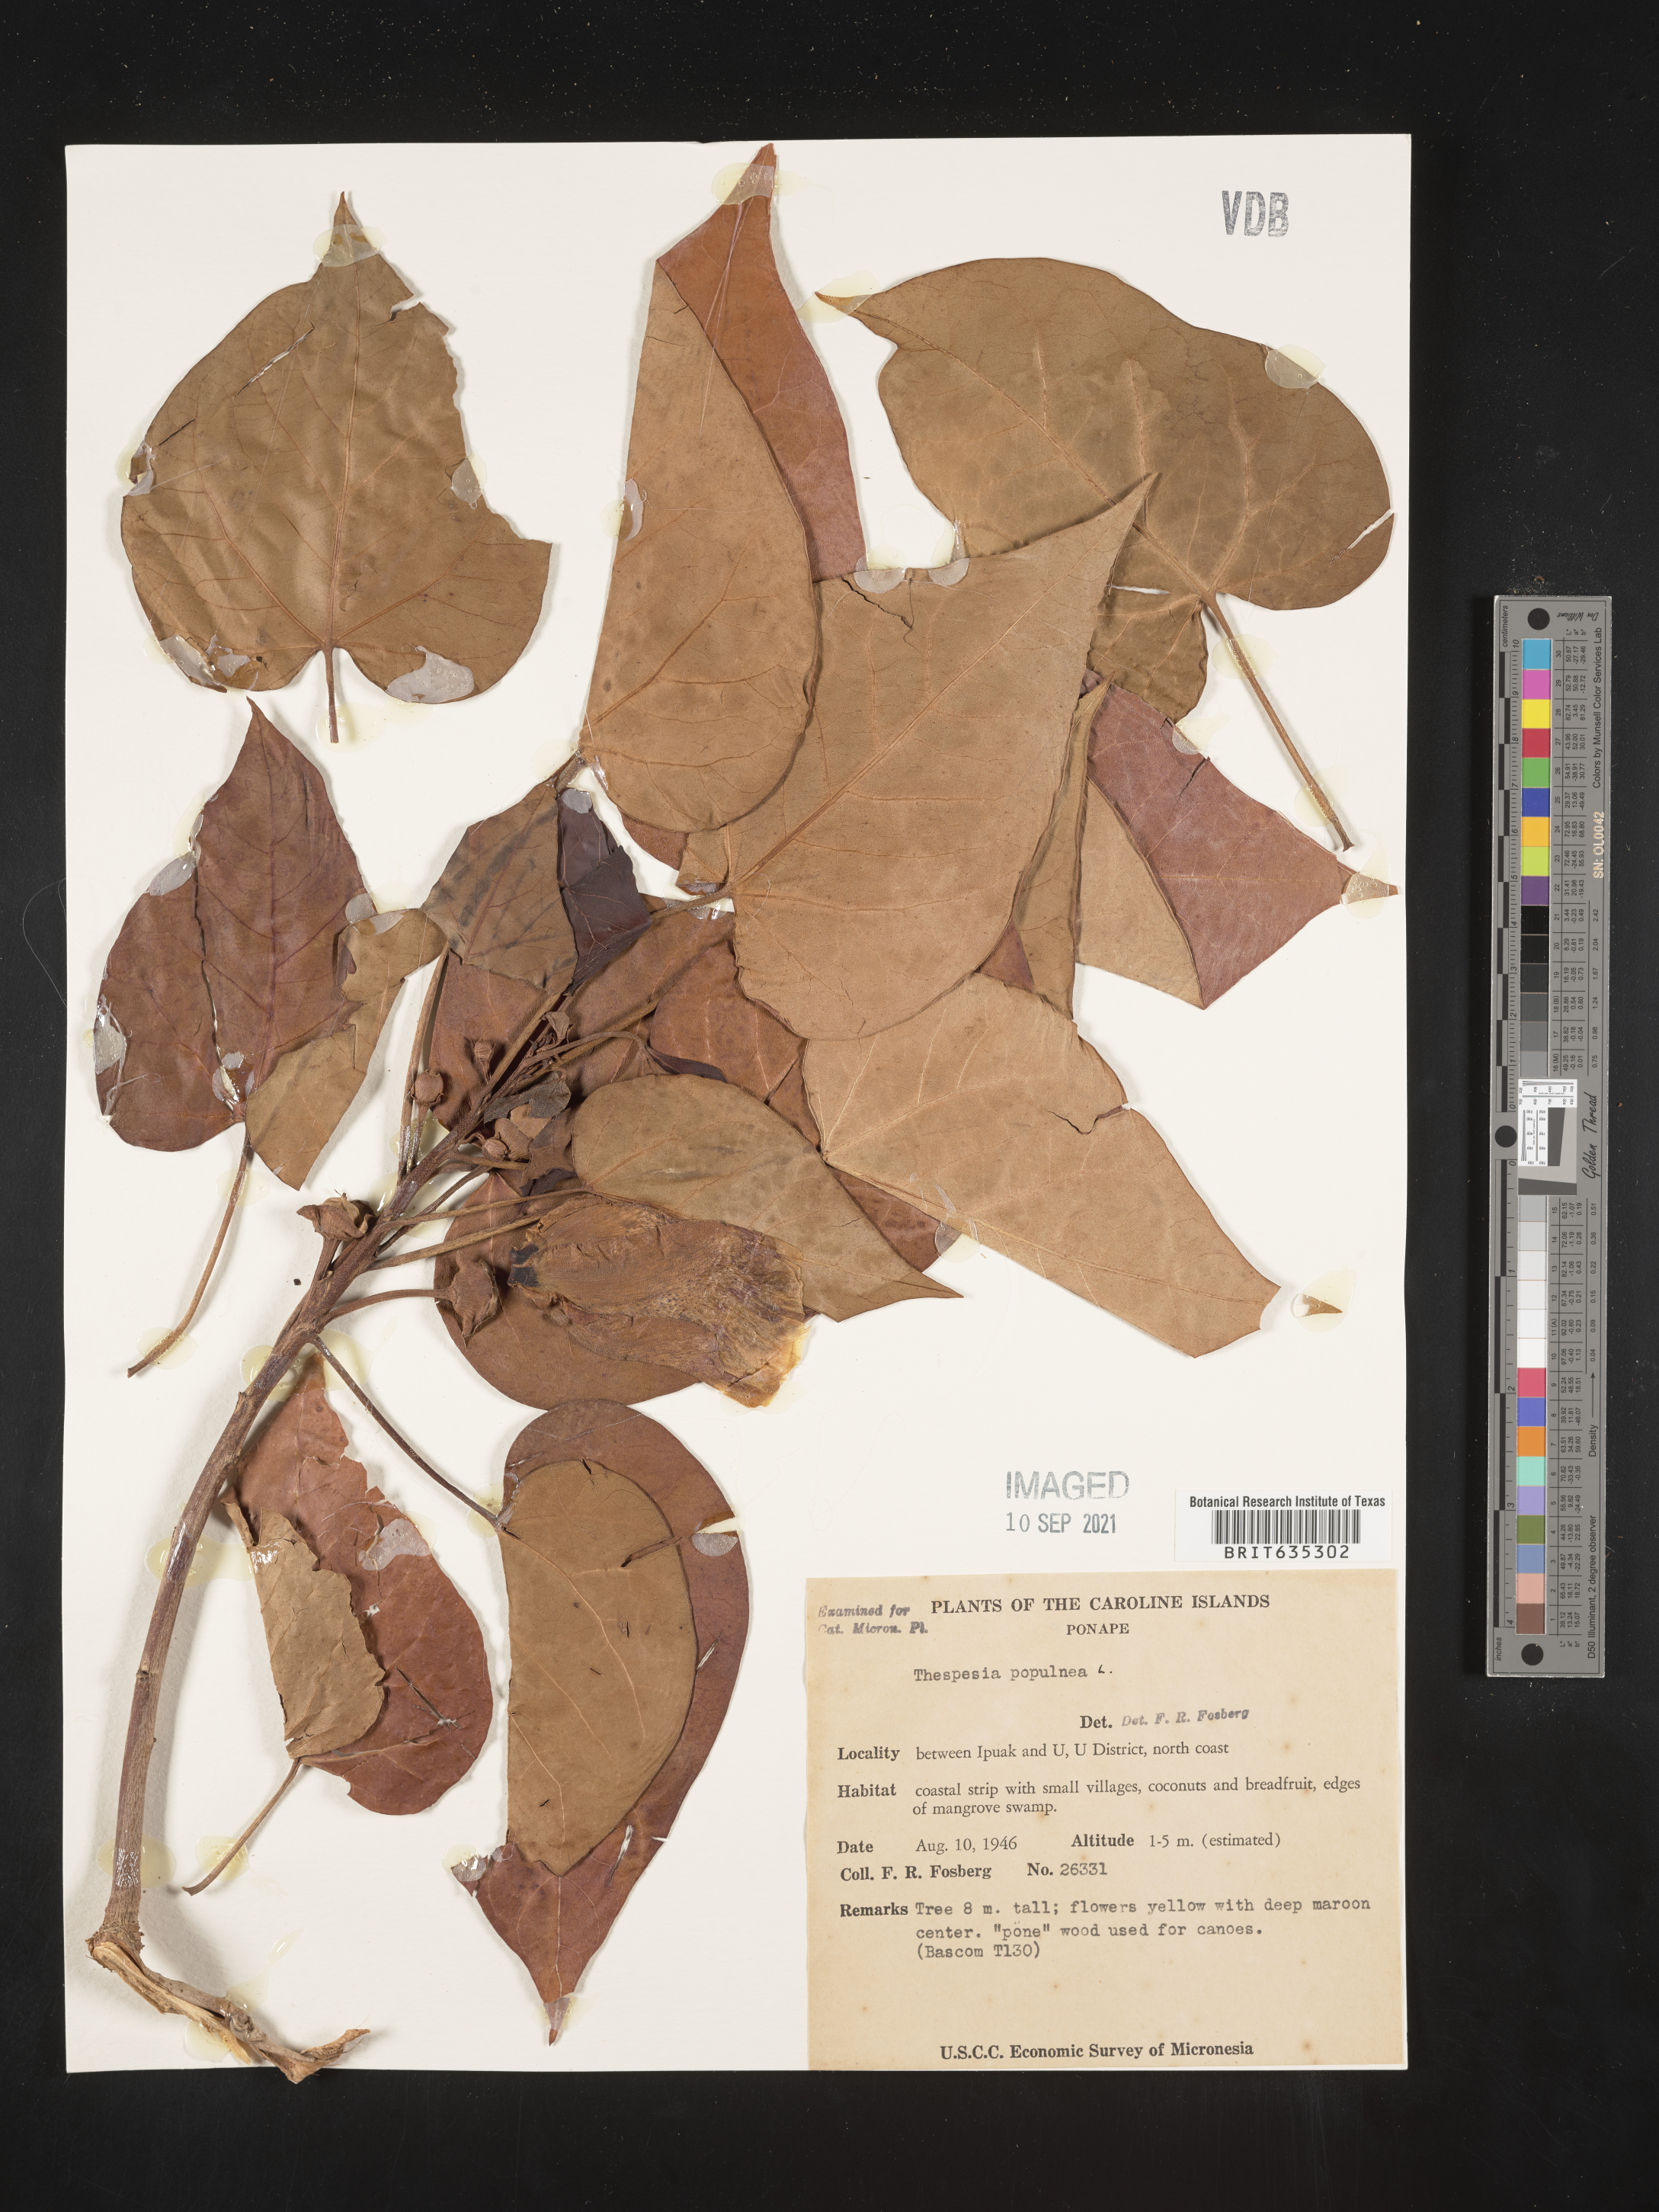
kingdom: Plantae
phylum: Tracheophyta
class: Magnoliopsida
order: Malvales
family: Malvaceae
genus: Thespesia
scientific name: Thespesia
